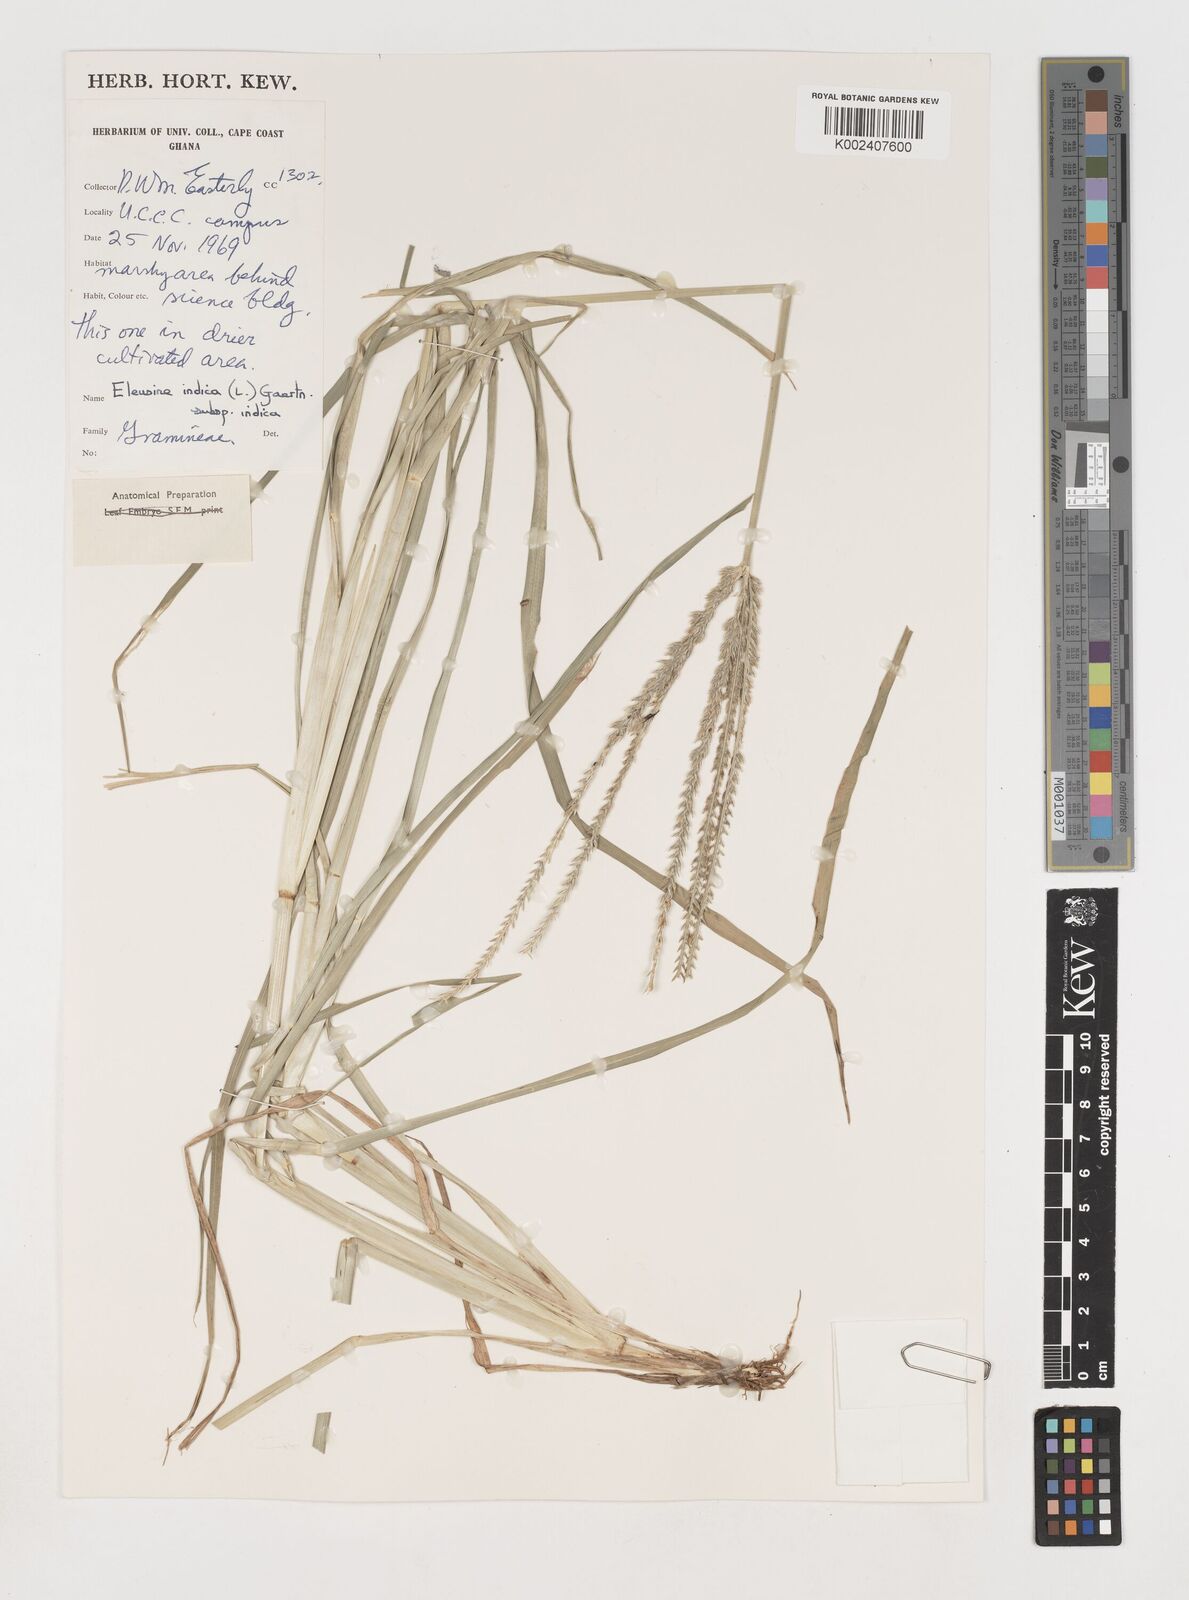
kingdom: Plantae
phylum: Tracheophyta
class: Liliopsida
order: Poales
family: Poaceae
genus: Eleusine
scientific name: Eleusine indica
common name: Yard-grass
